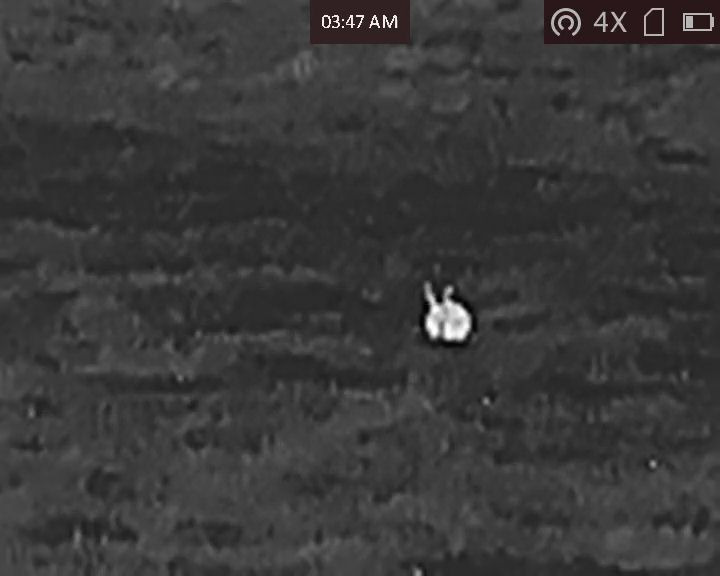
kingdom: Animalia
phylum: Chordata
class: Mammalia
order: Lagomorpha
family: Leporidae
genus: Lepus
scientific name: Lepus europaeus
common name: Hare
